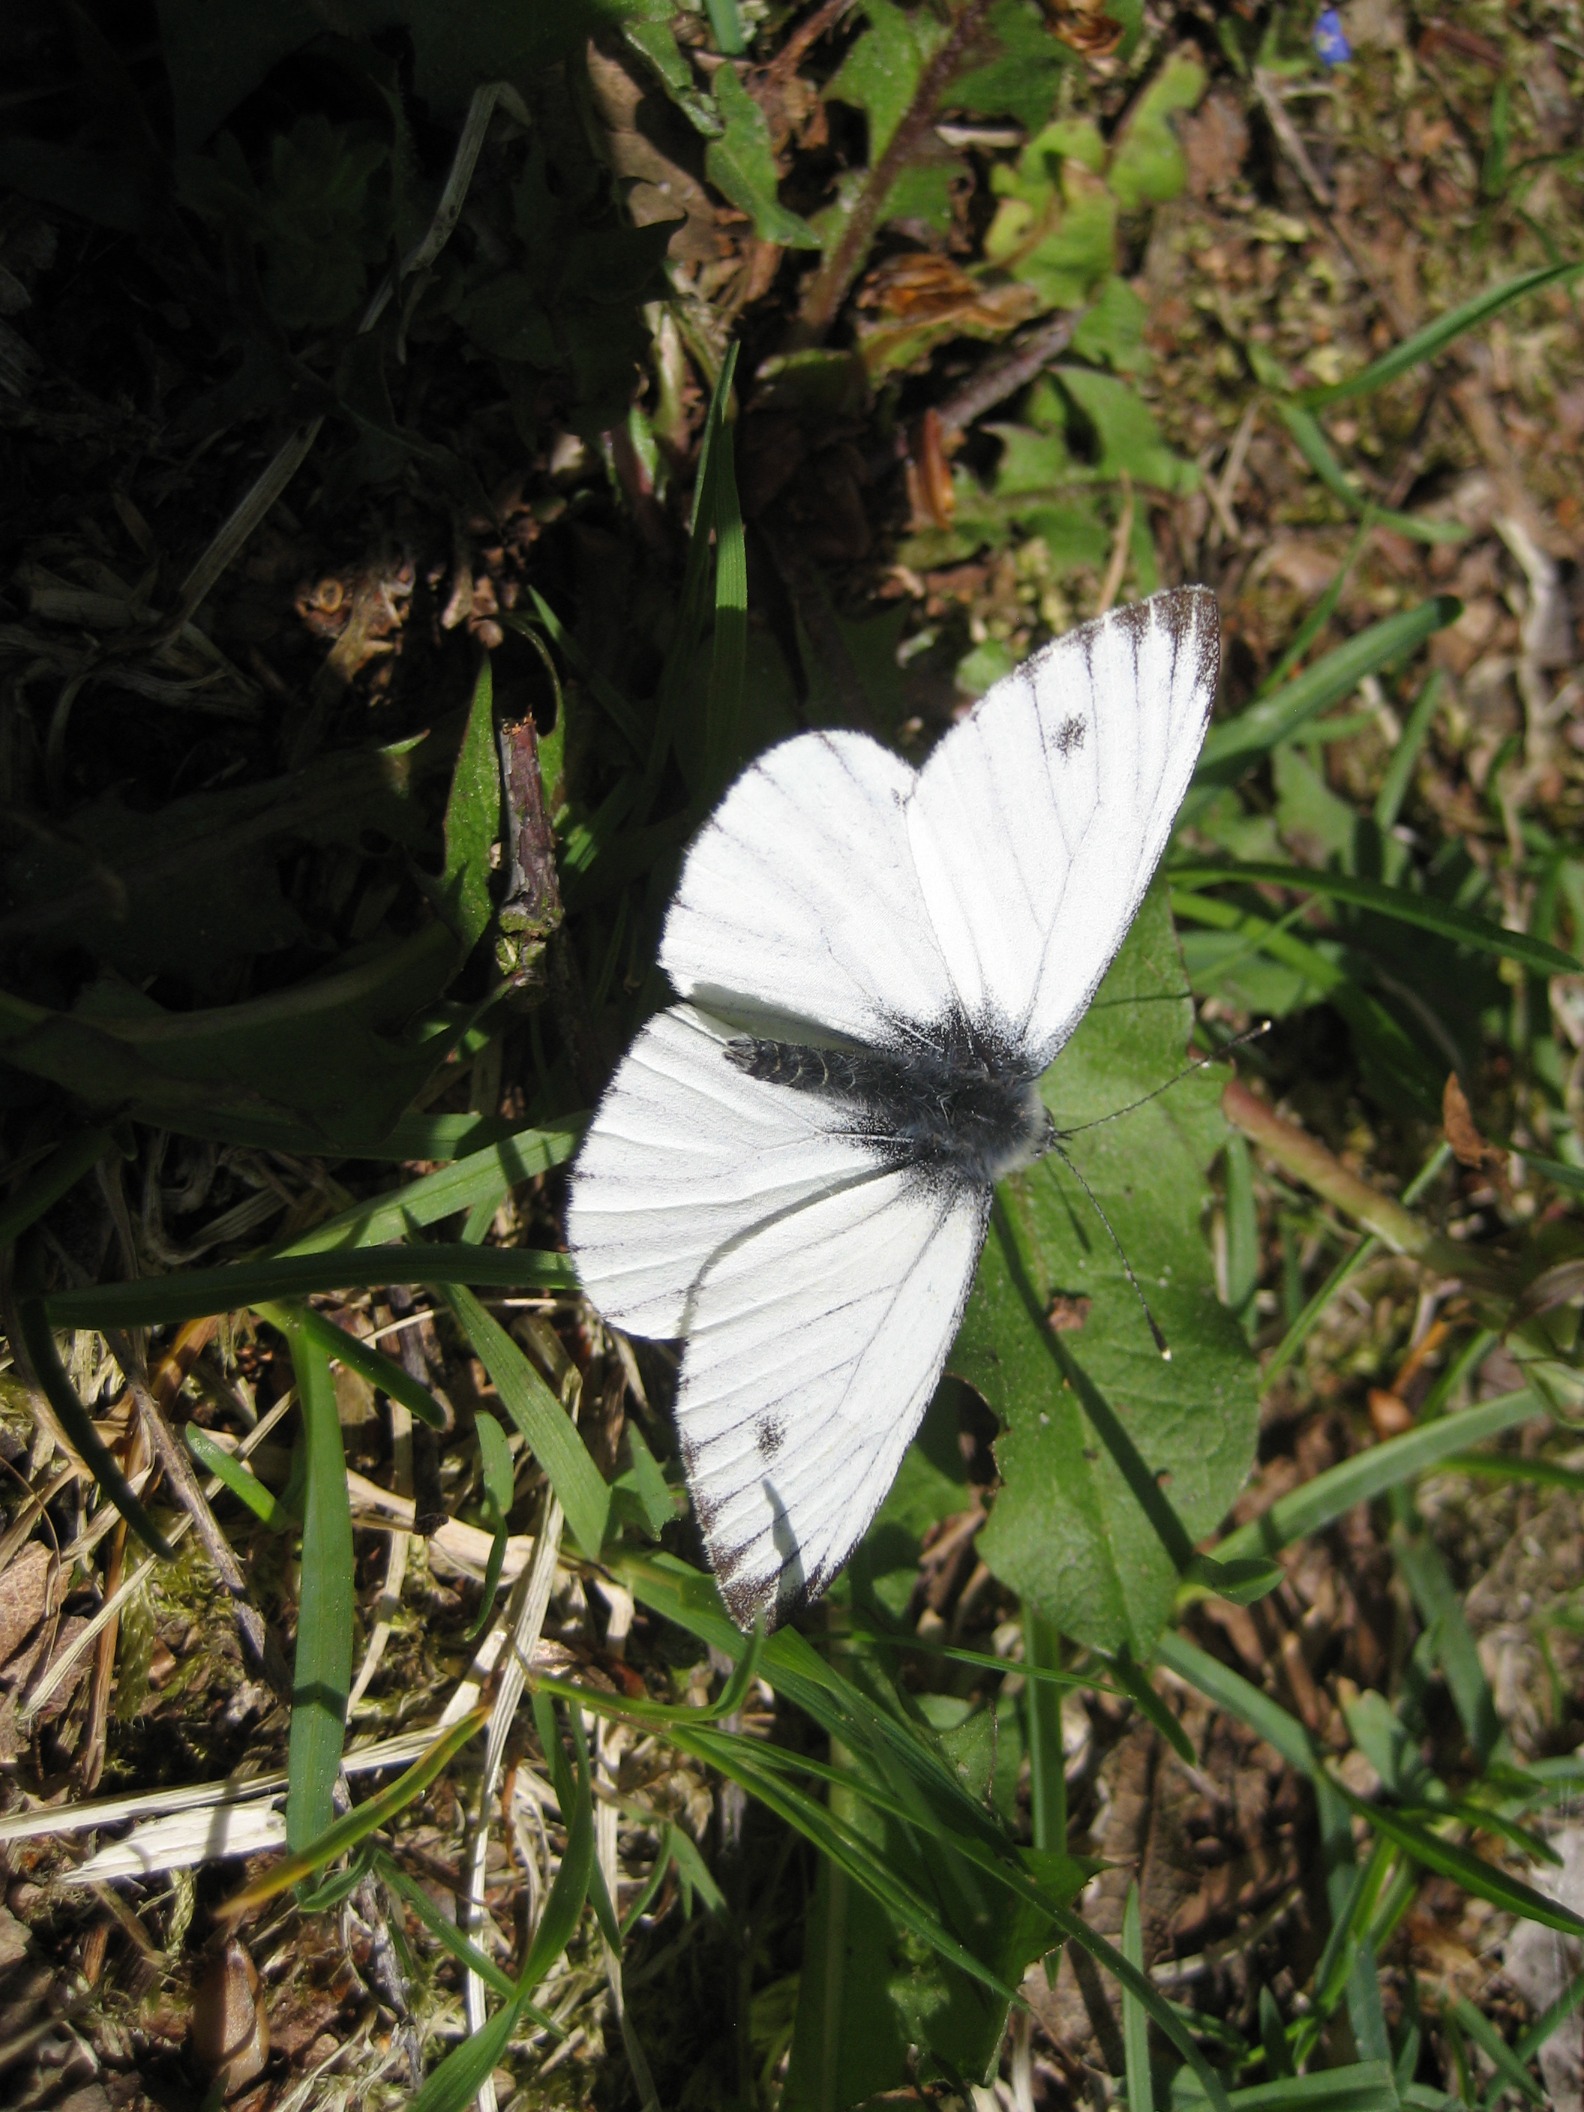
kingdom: Animalia
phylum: Arthropoda
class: Insecta
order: Lepidoptera
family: Pieridae
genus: Pieris
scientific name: Pieris napi
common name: Grønåret kålsommerfugl
